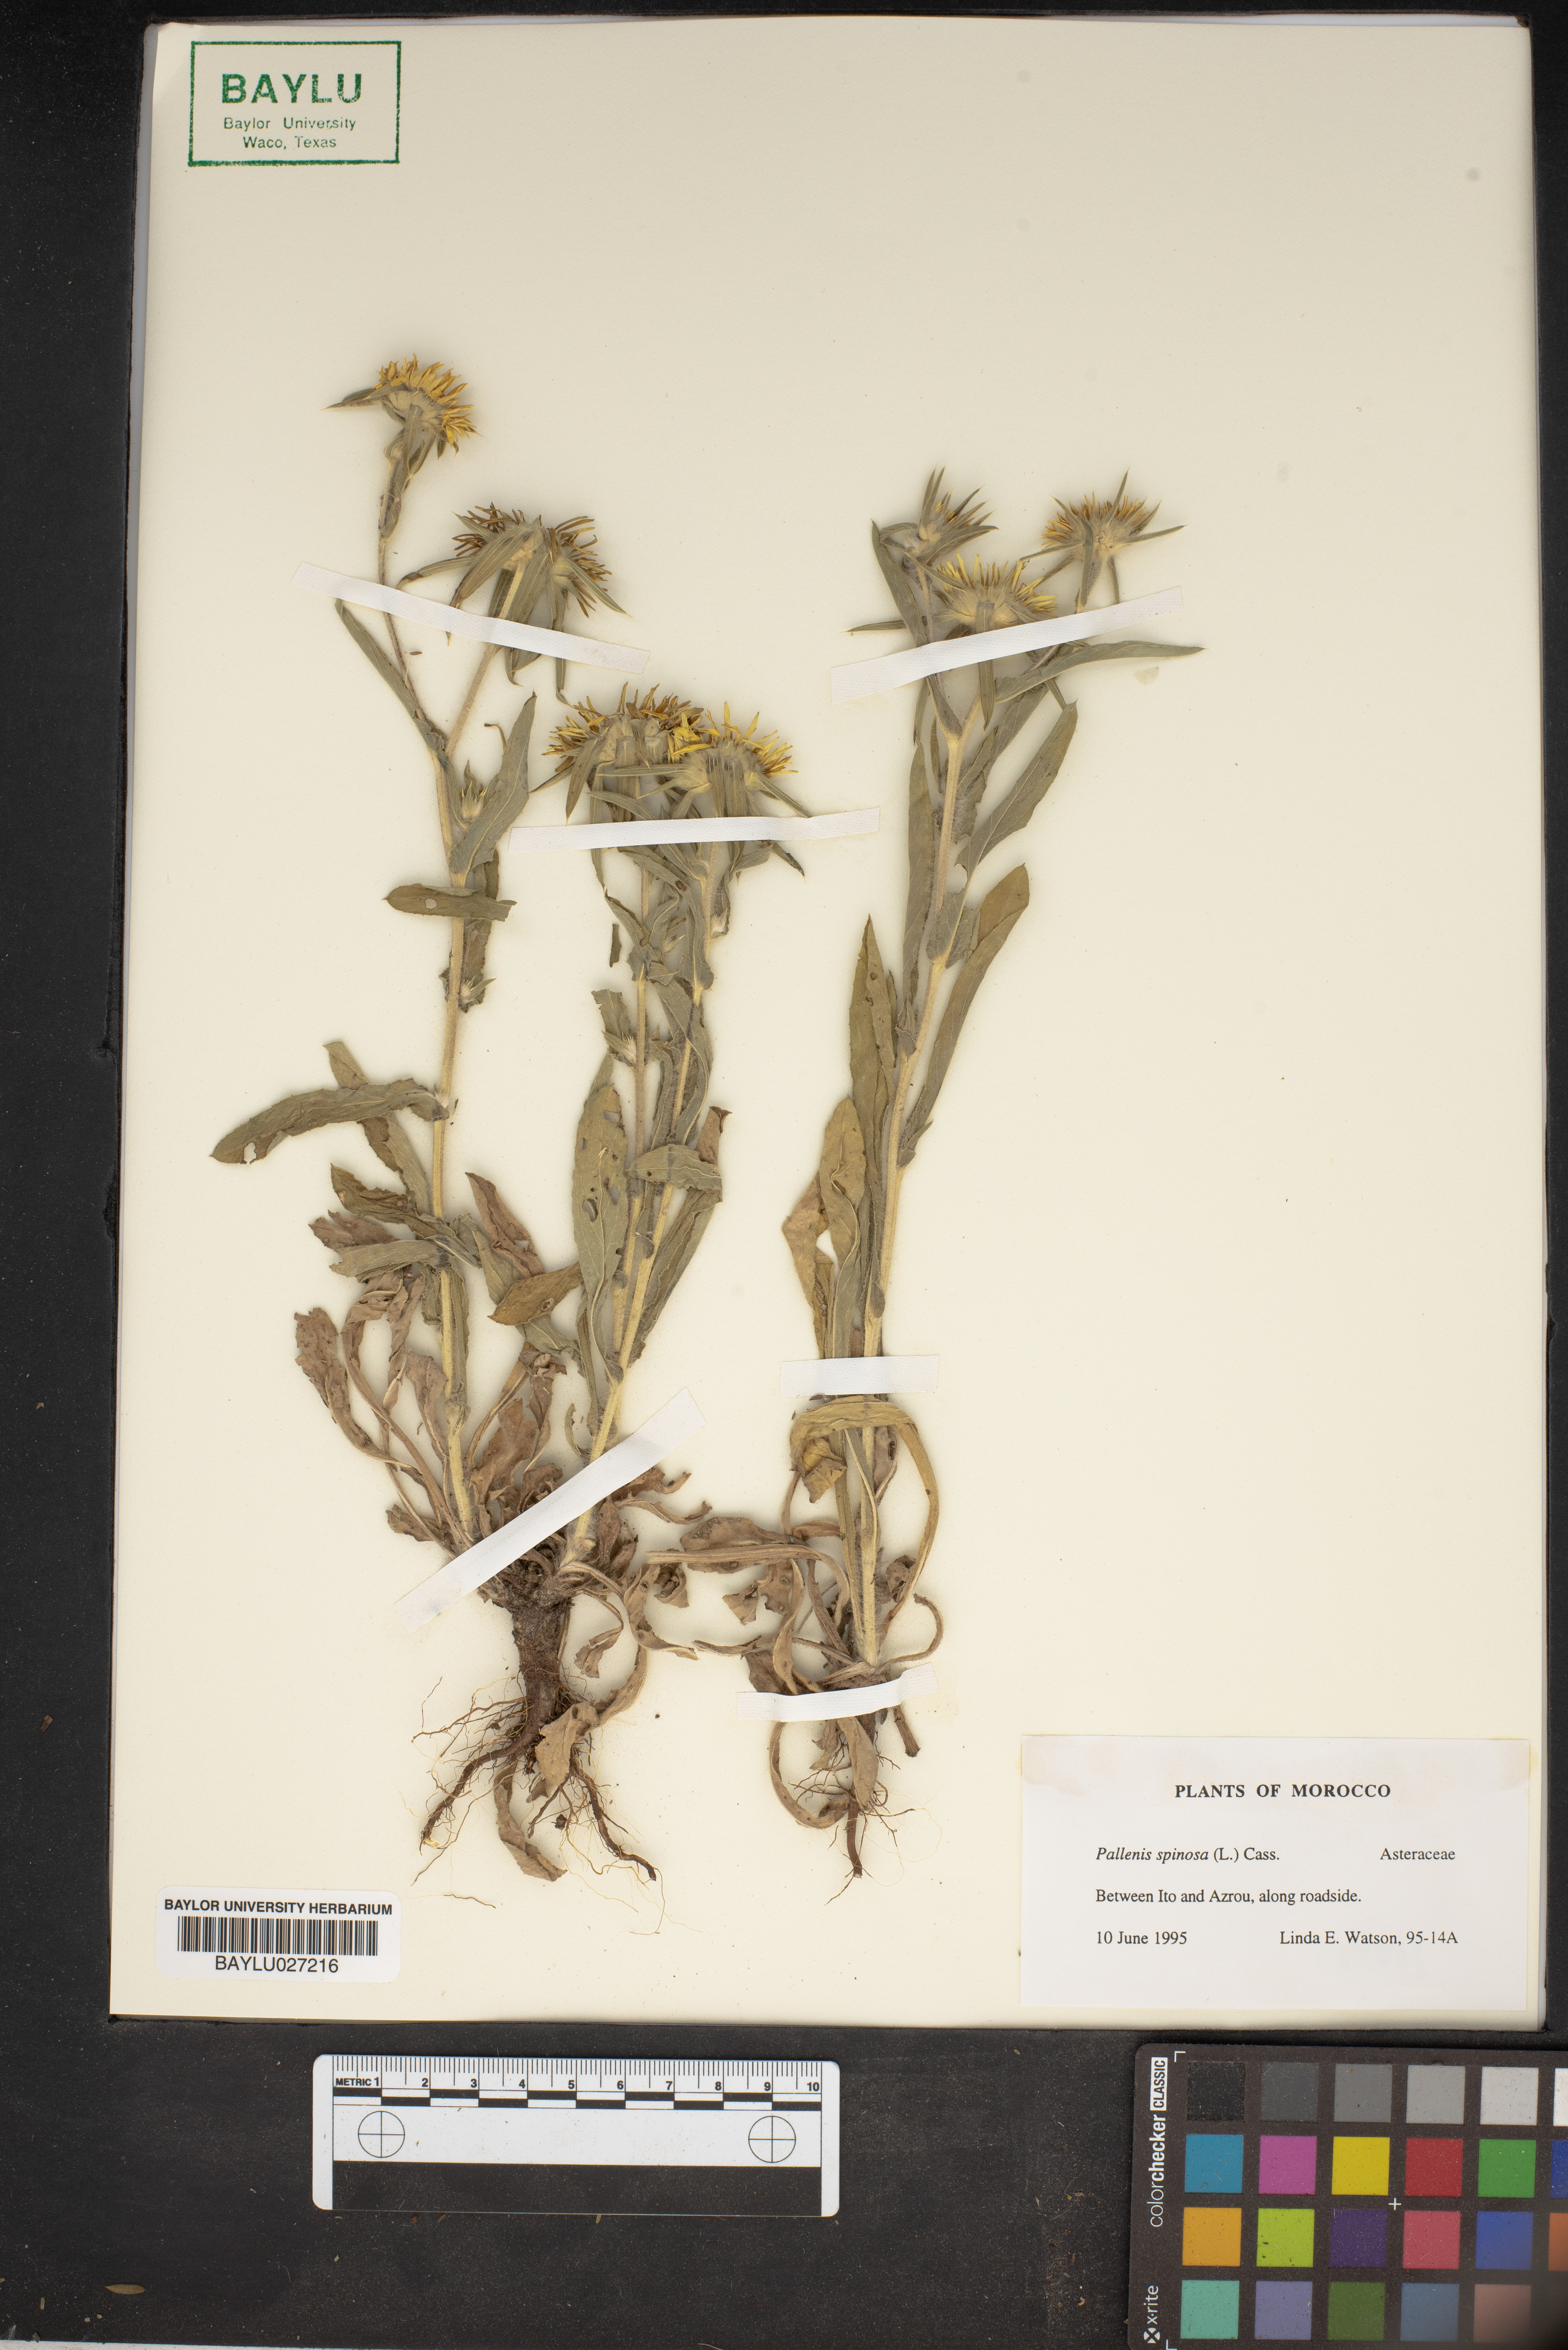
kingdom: Plantae
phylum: Tracheophyta
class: Magnoliopsida
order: Asterales
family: Asteraceae
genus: Pallenis
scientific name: Pallenis spinosa
